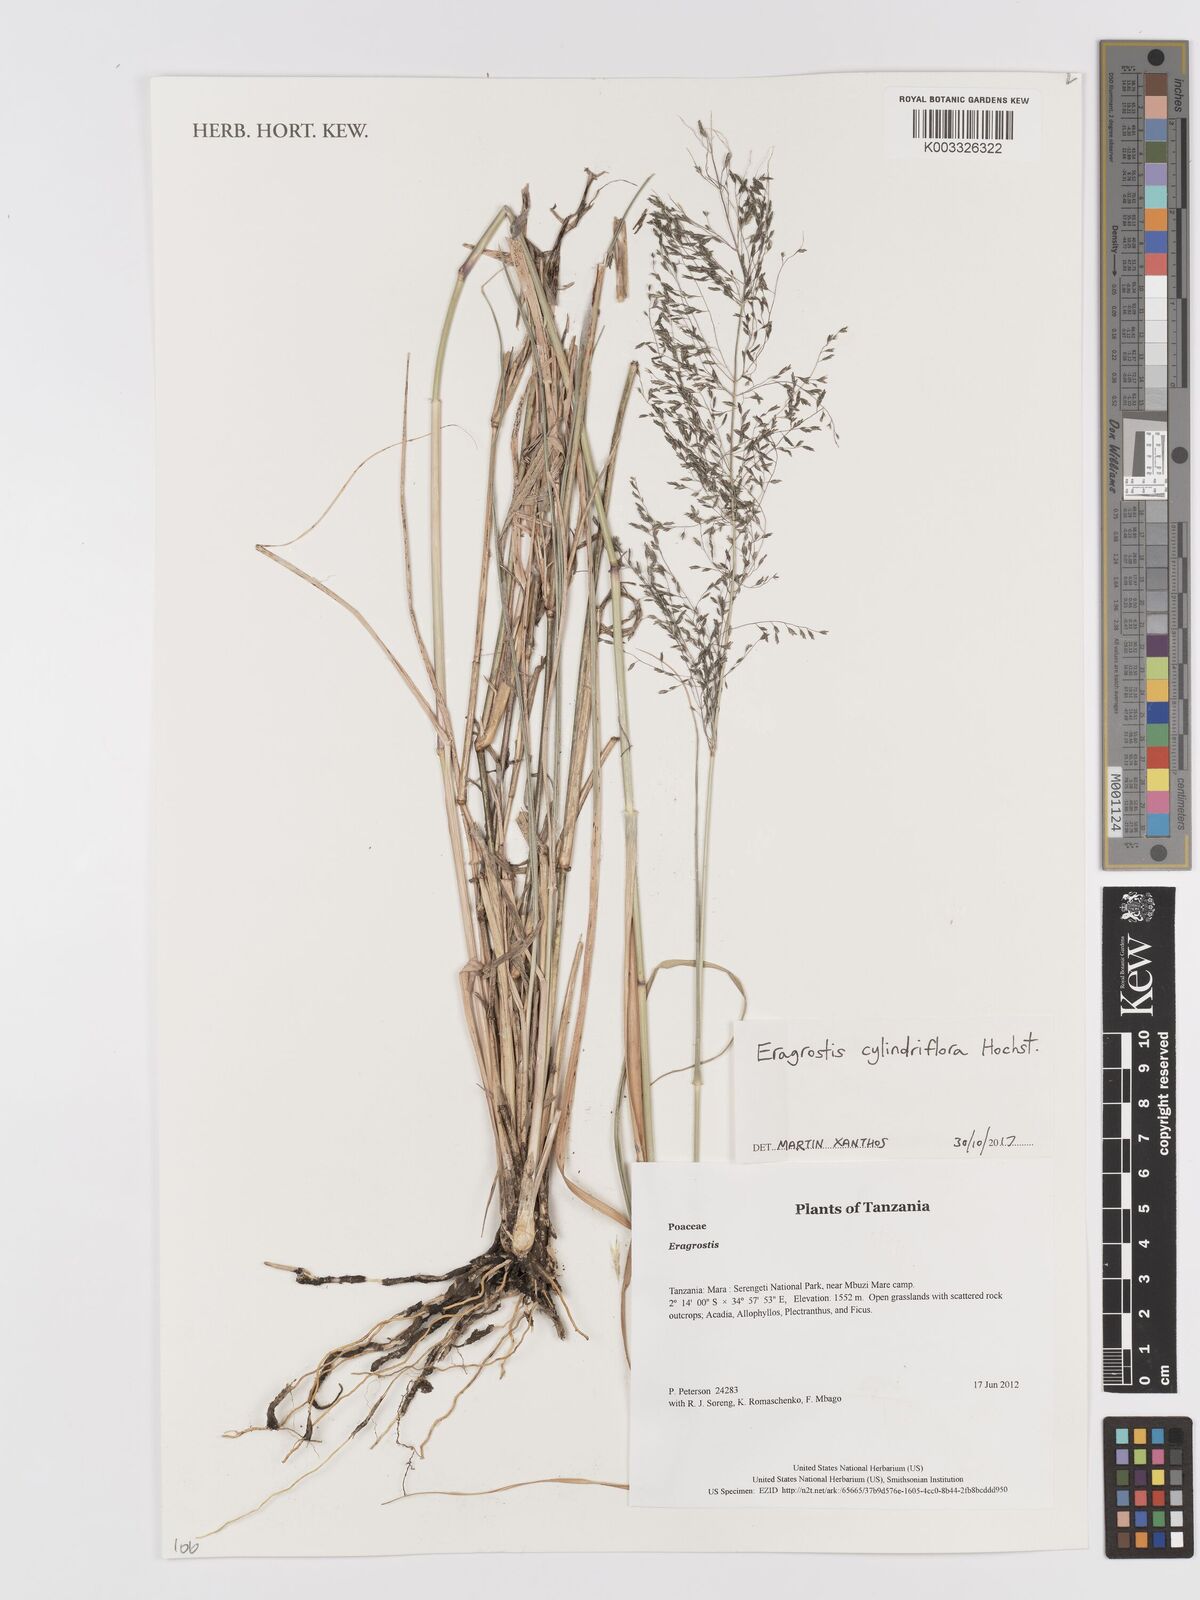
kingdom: Plantae
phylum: Tracheophyta
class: Liliopsida
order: Poales
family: Poaceae
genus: Eragrostis
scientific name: Eragrostis cylindriflora
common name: Cylinderflower lovegrass
